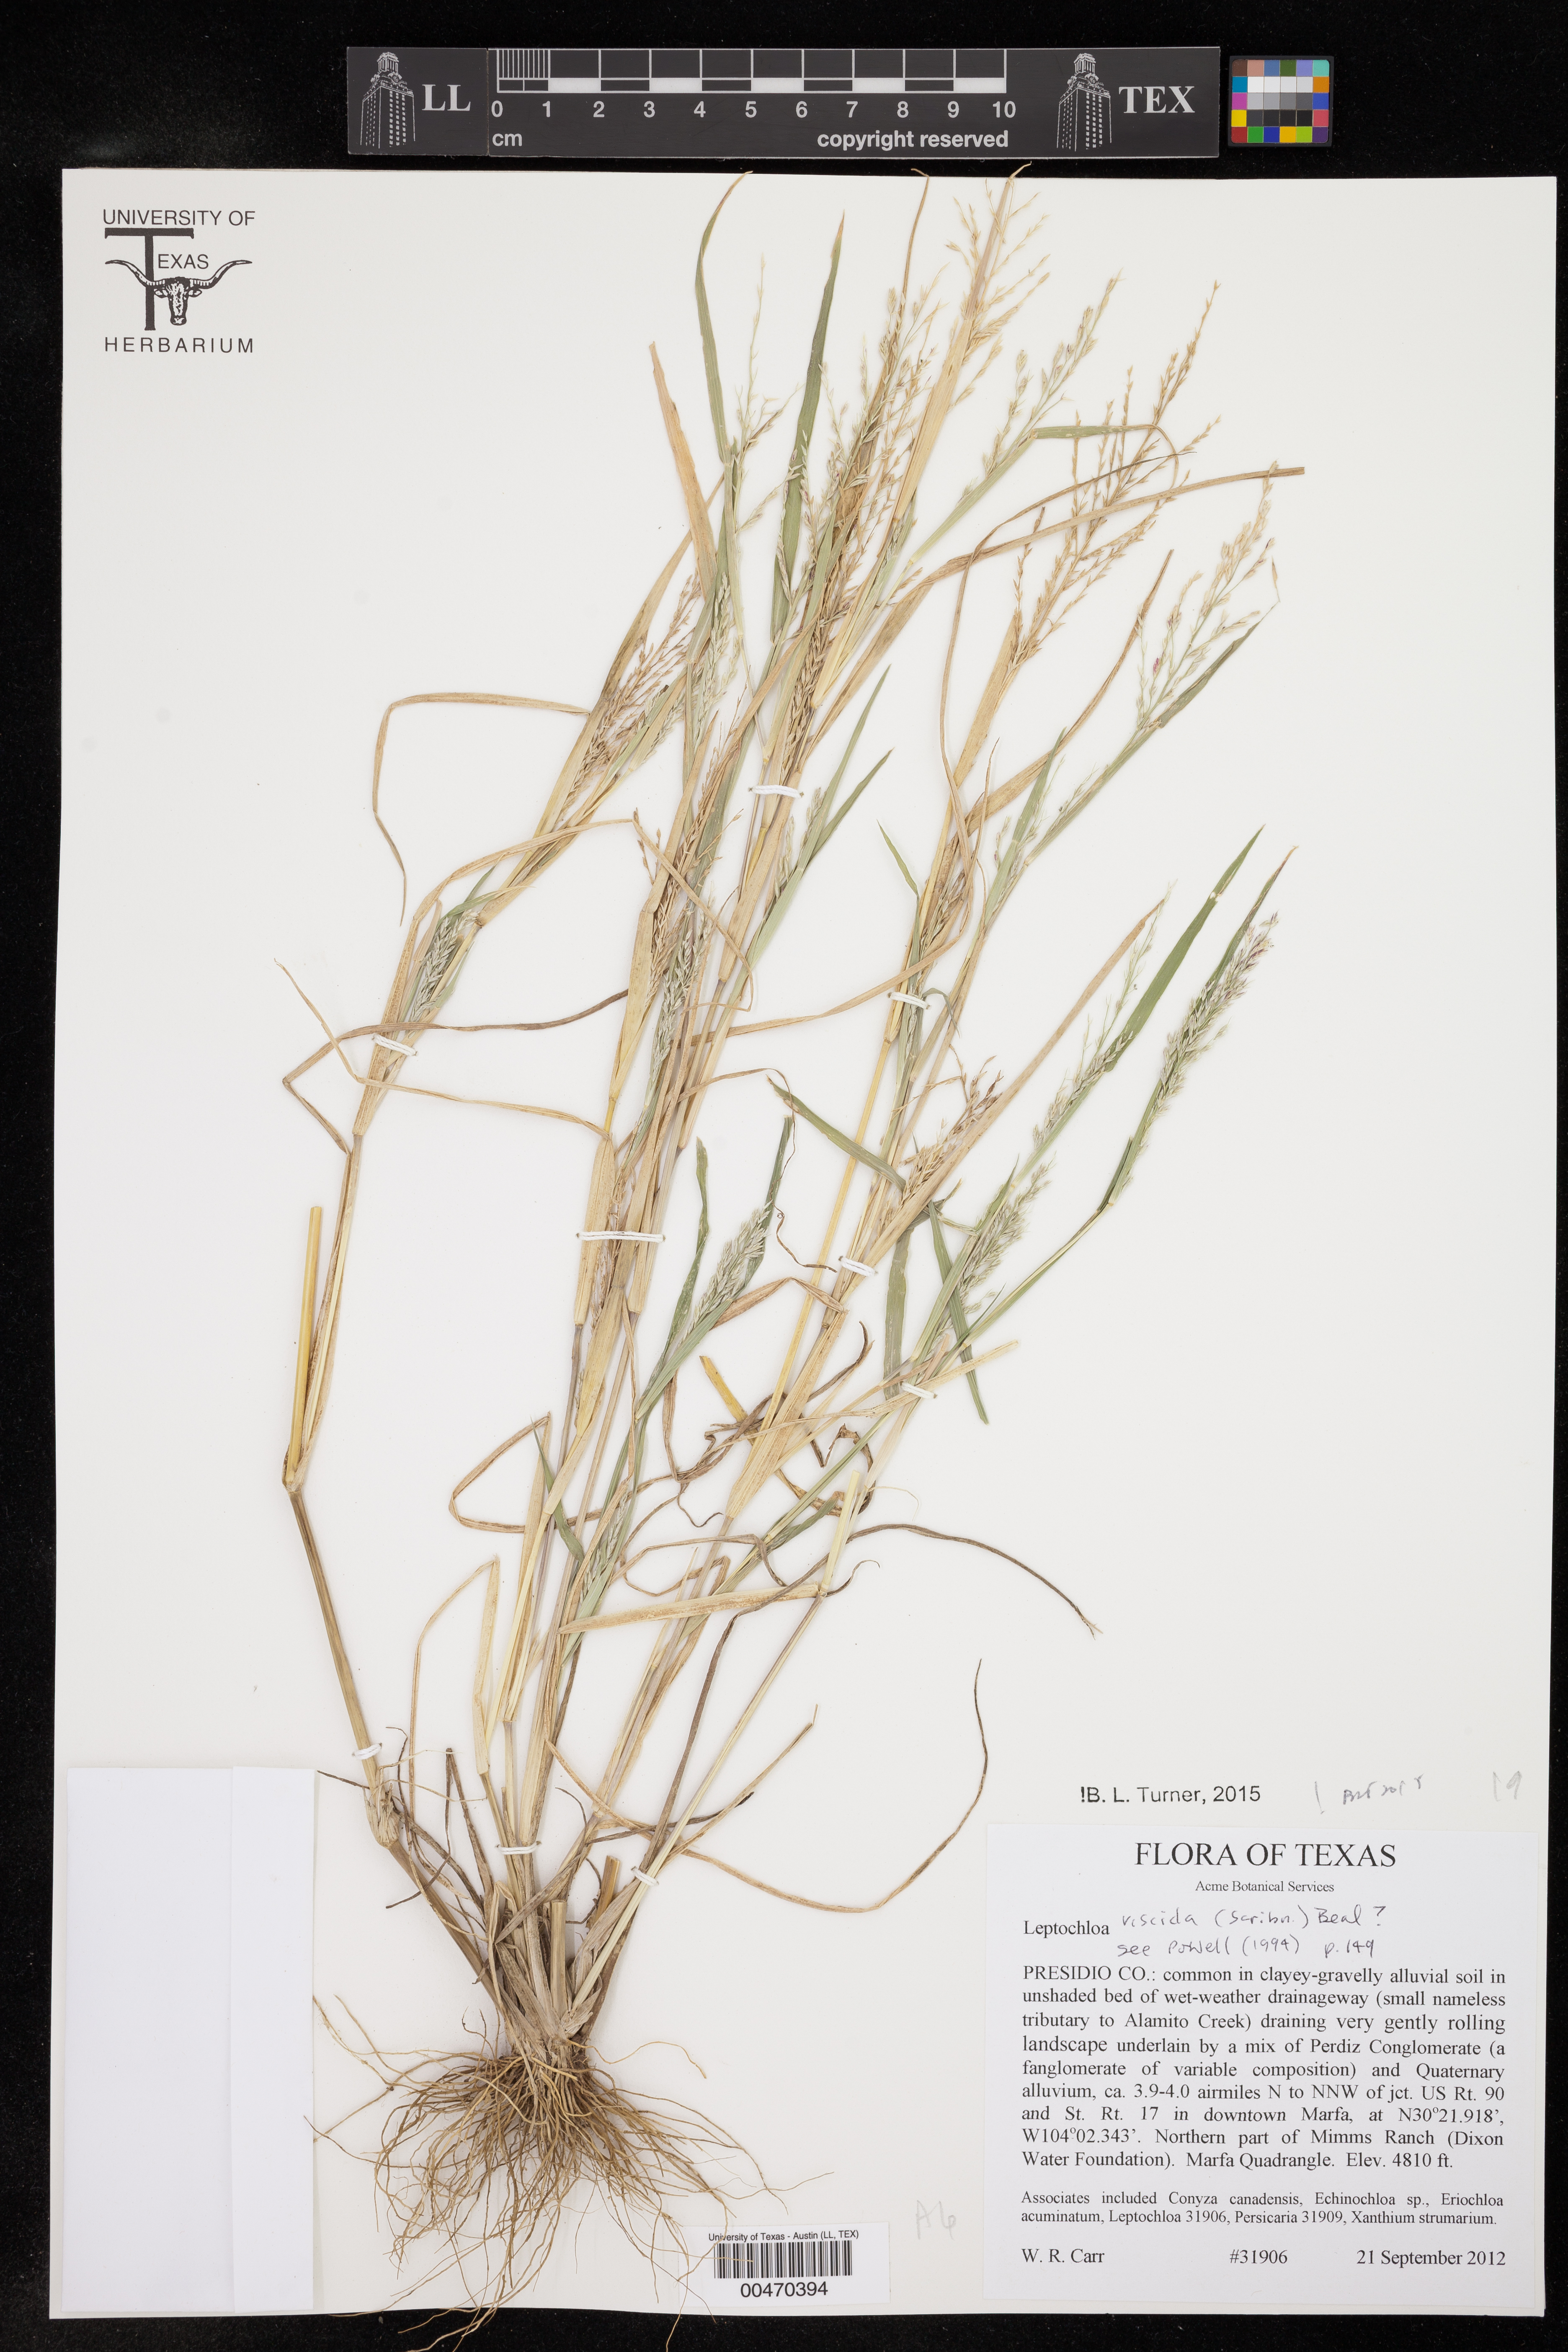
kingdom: Plantae
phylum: Tracheophyta
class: Liliopsida
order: Poales
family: Poaceae
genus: Leptochloa
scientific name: Leptochloa viscida
